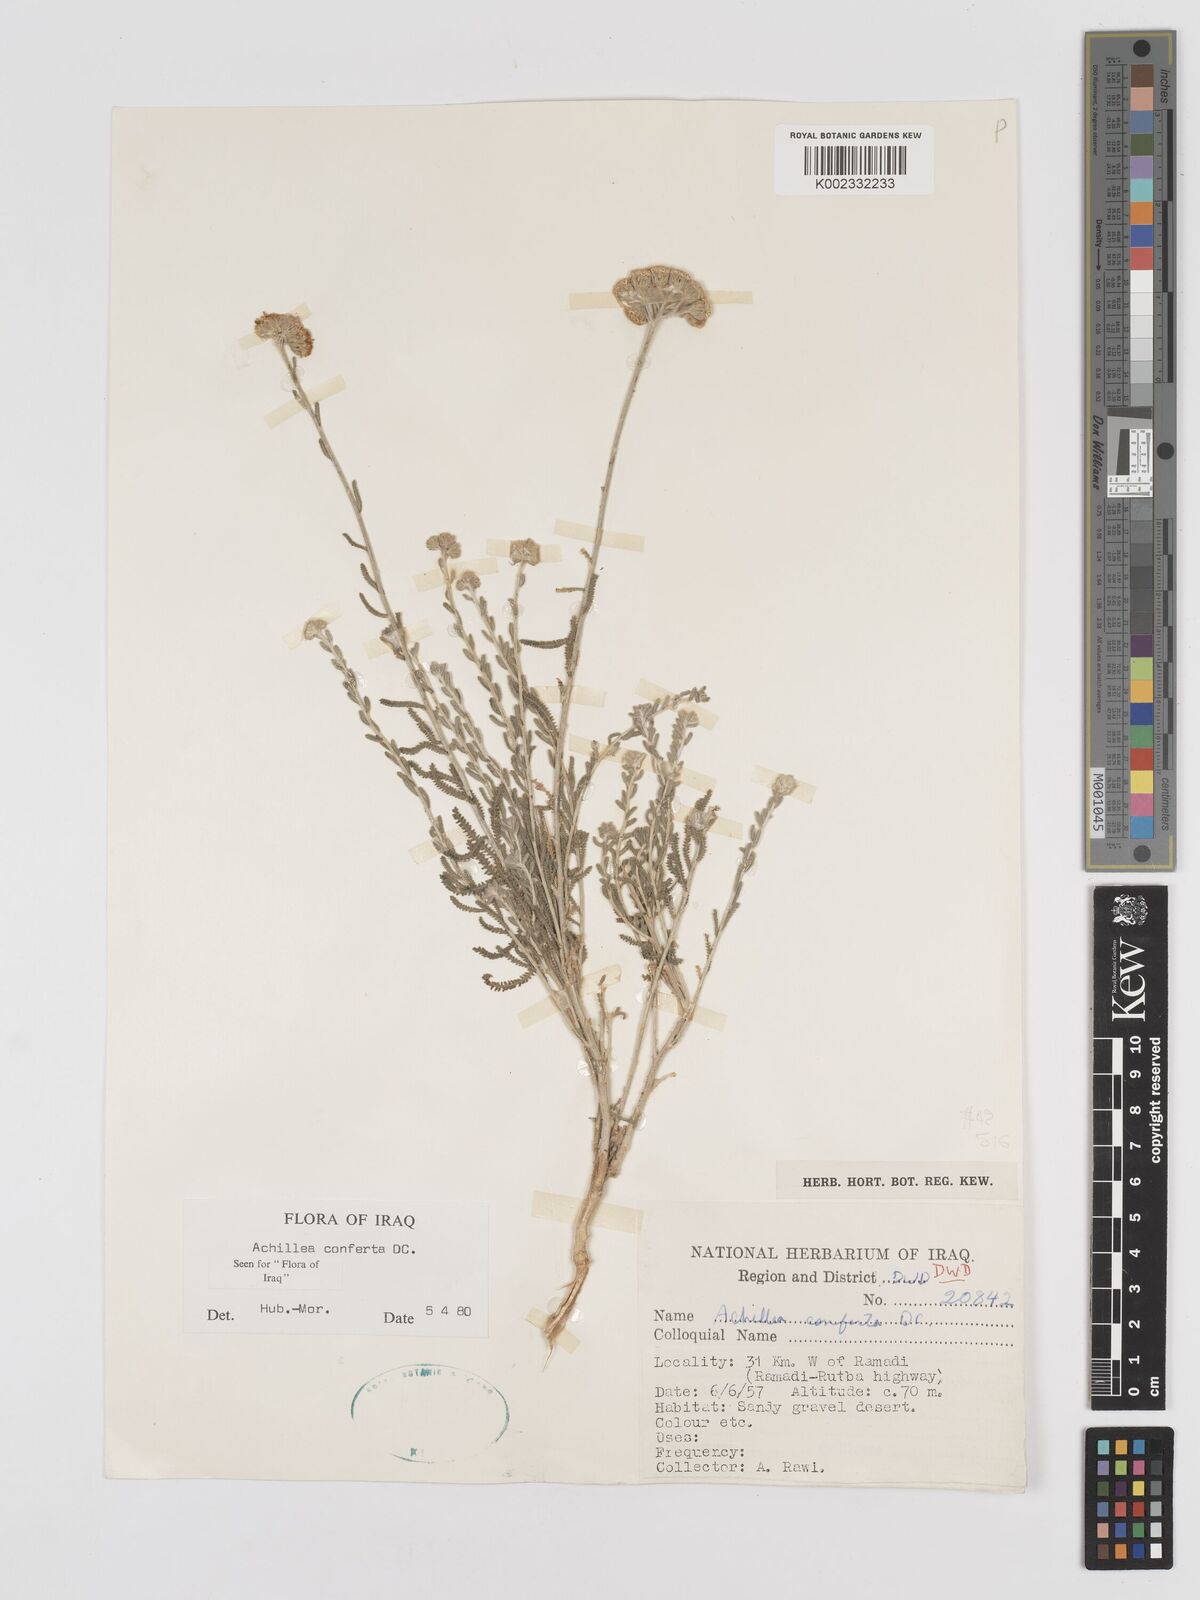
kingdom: Plantae
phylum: Tracheophyta
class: Magnoliopsida
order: Asterales
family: Asteraceae
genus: Achillea
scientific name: Achillea conferta
